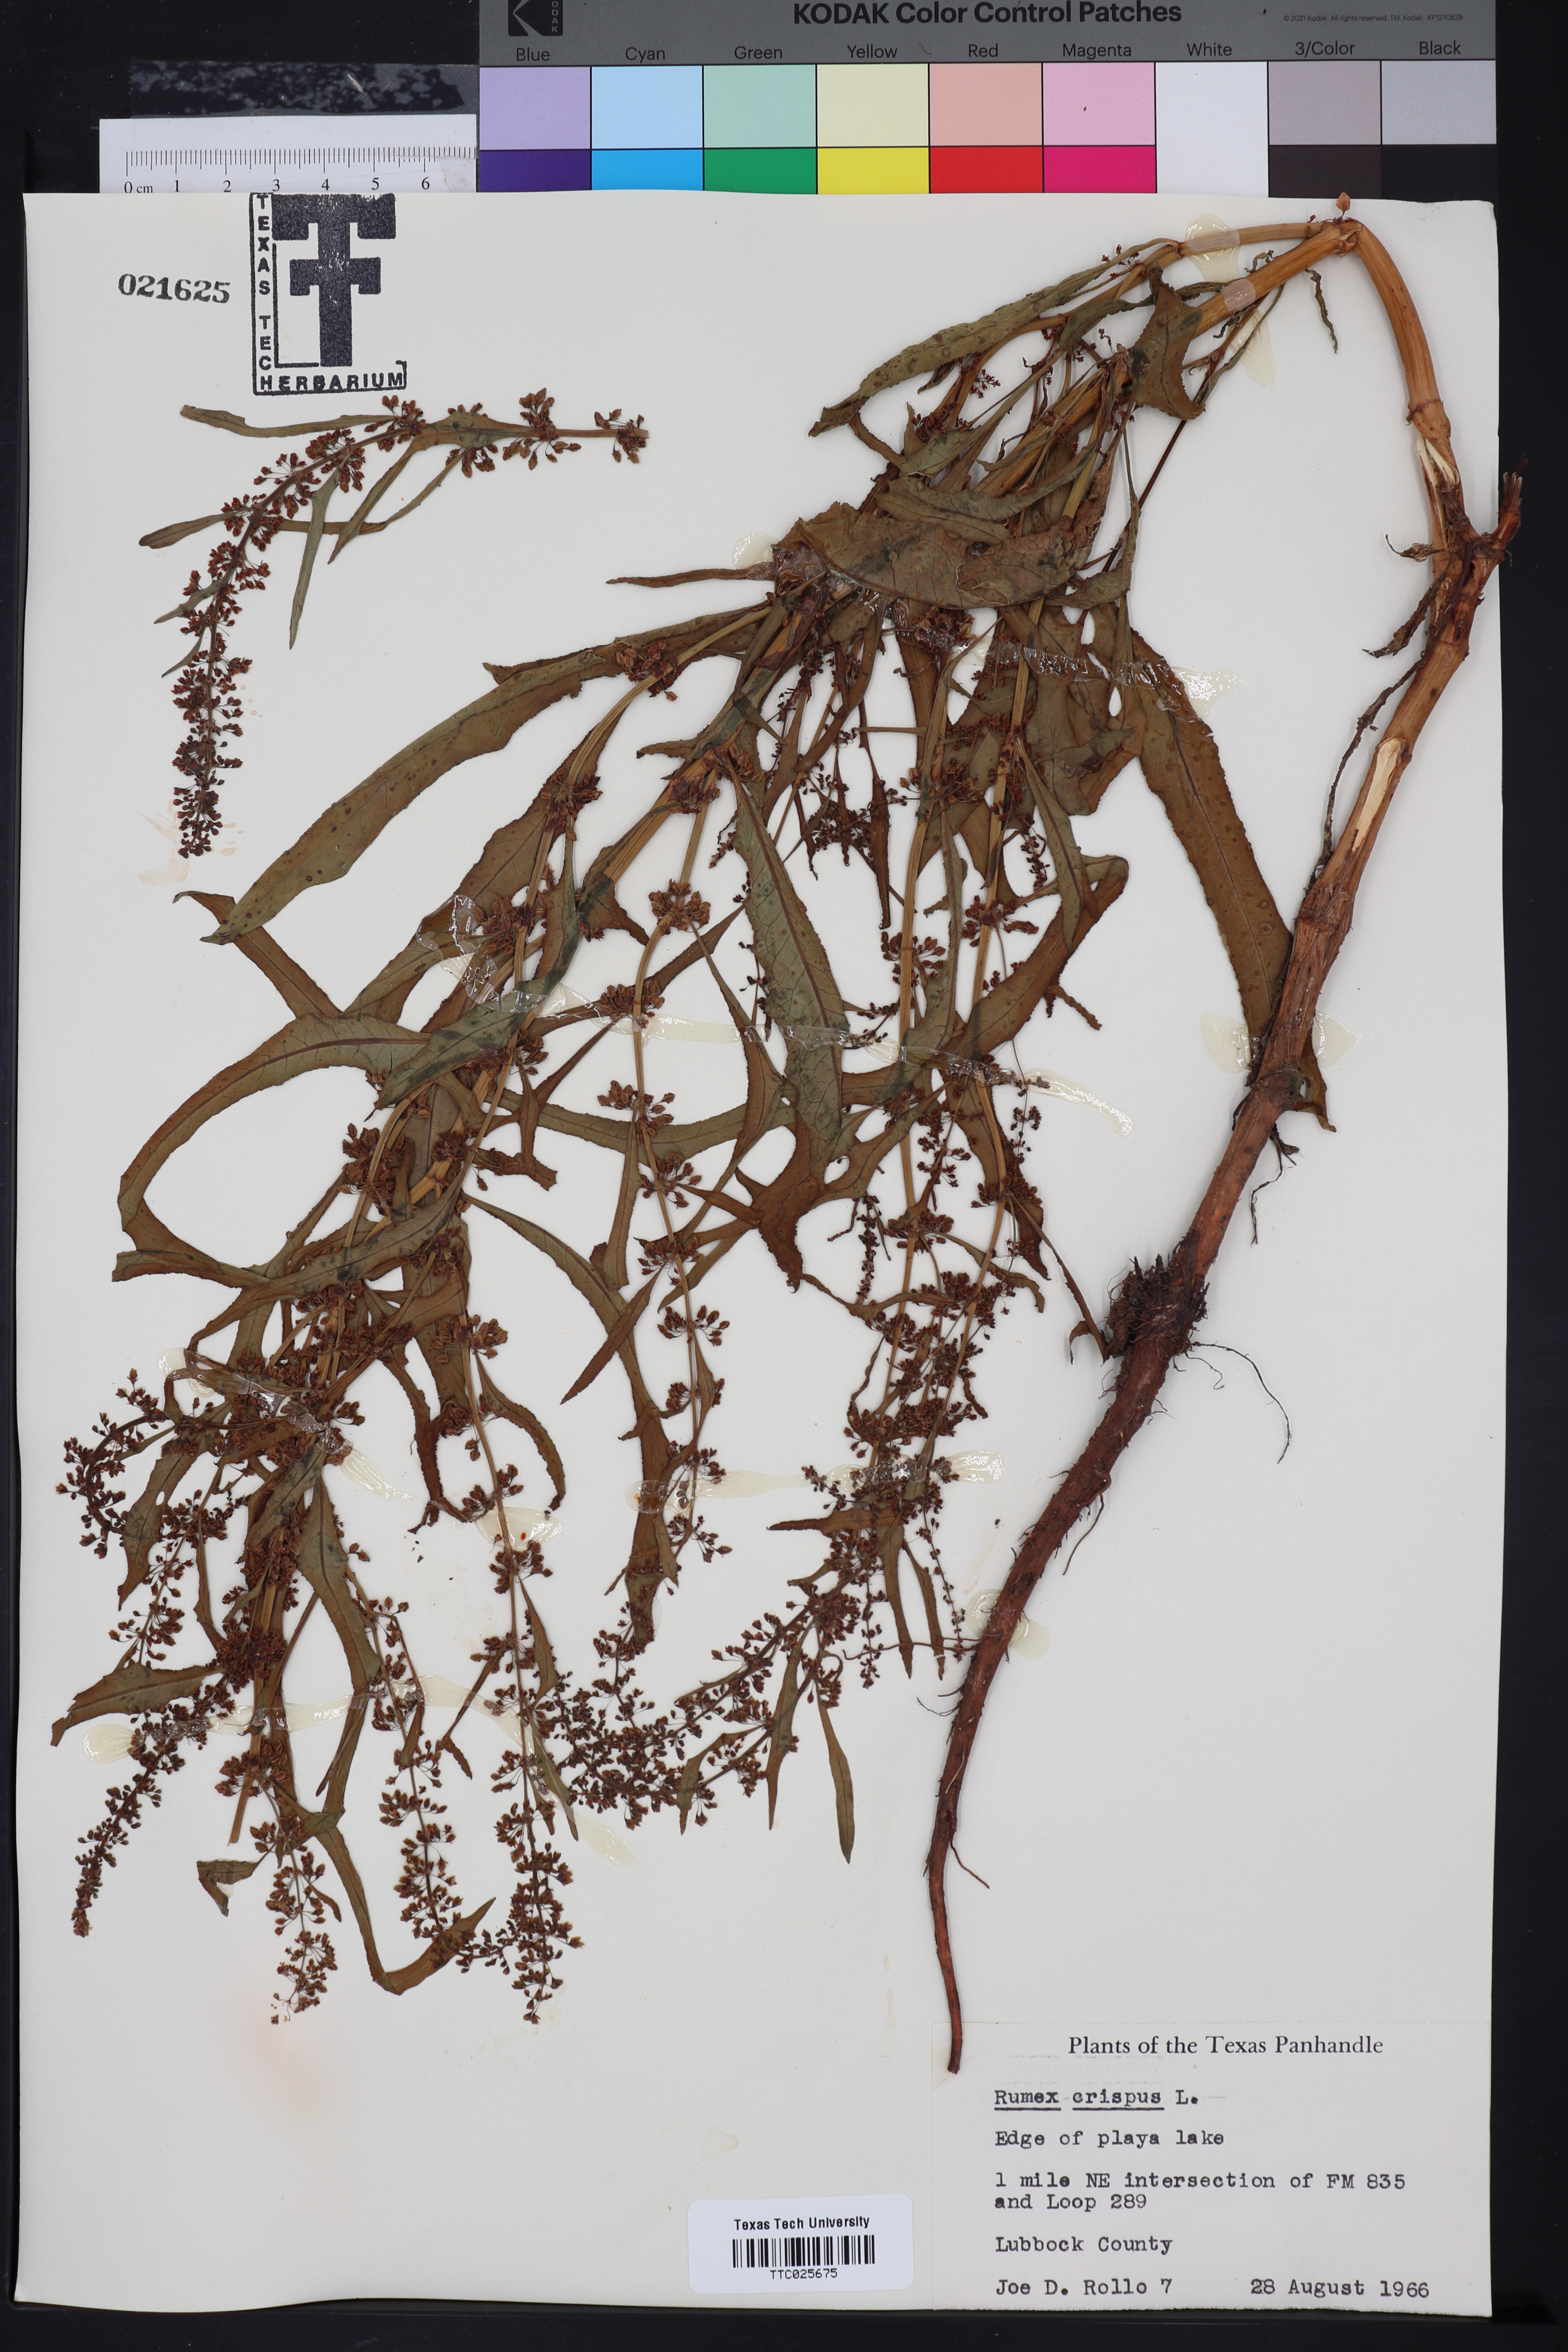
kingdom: Plantae
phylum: Tracheophyta
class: Magnoliopsida
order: Caryophyllales
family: Polygonaceae
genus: Rumex
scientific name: Rumex crispus
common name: Curled dock
